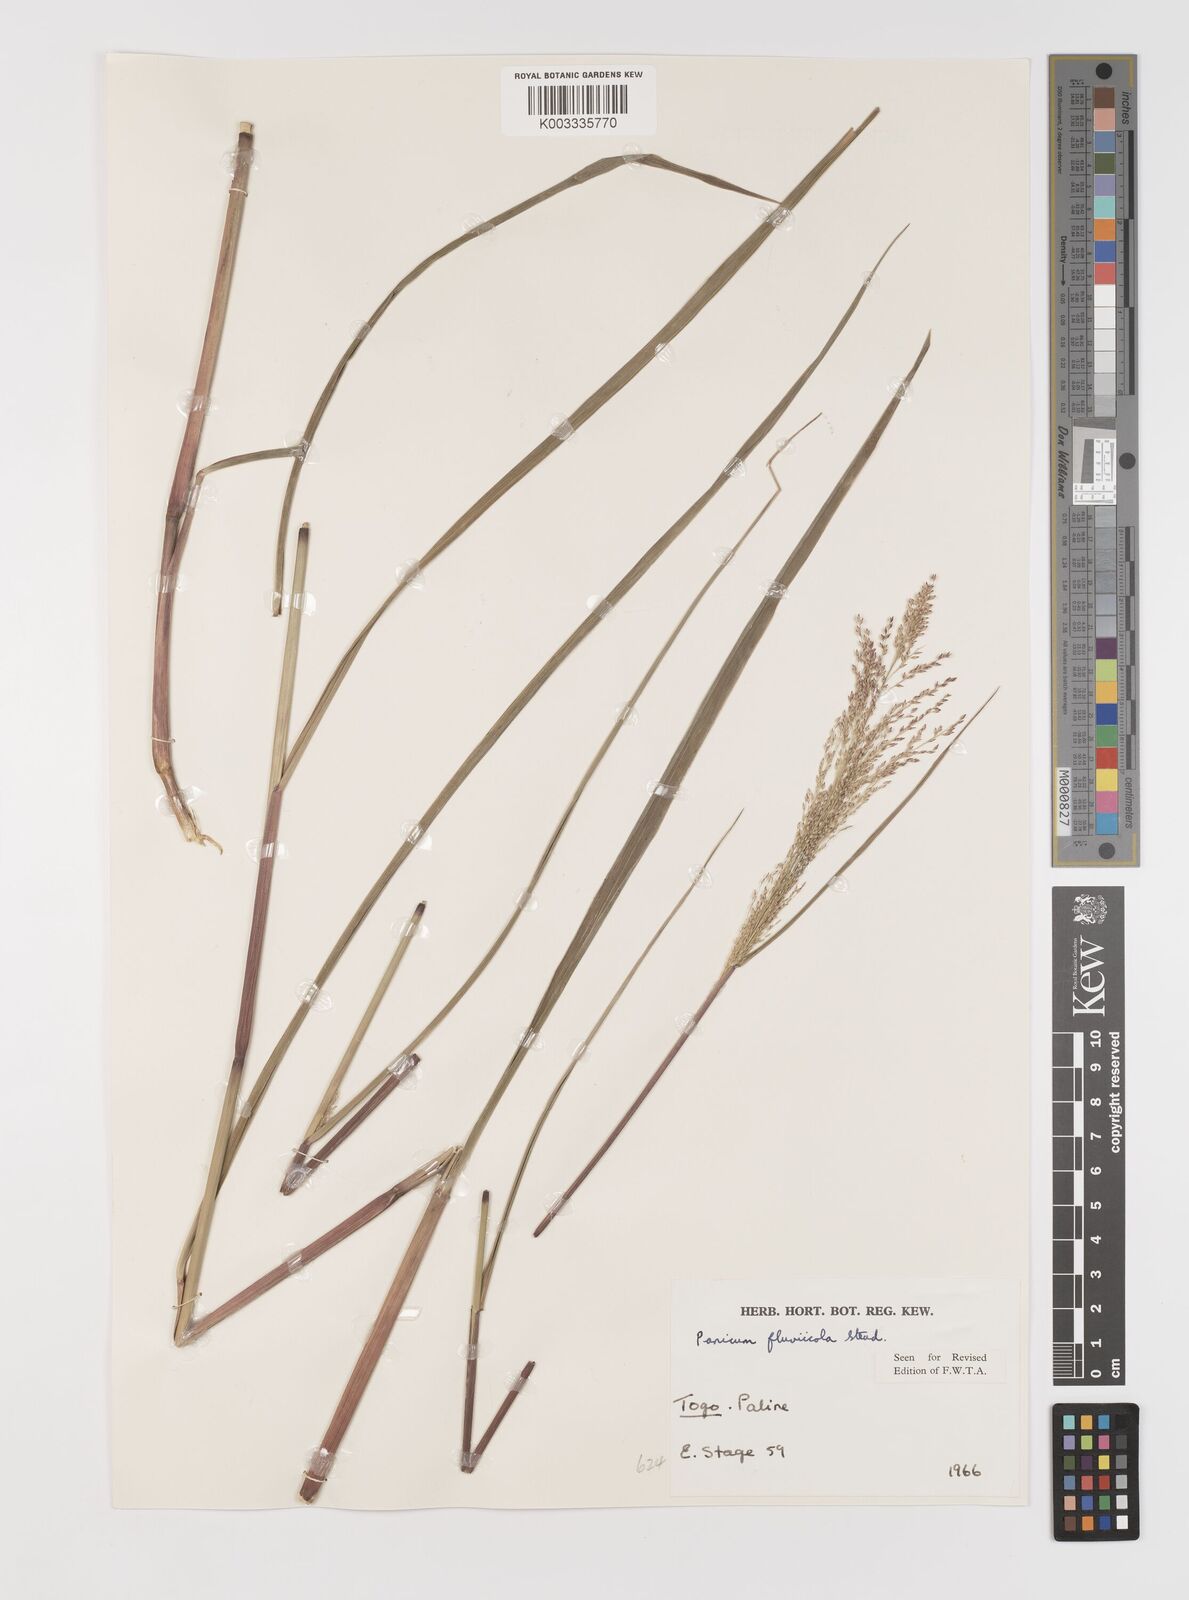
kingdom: Plantae
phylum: Tracheophyta
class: Liliopsida
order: Poales
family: Poaceae
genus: Panicum
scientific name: Panicum fluviicola
